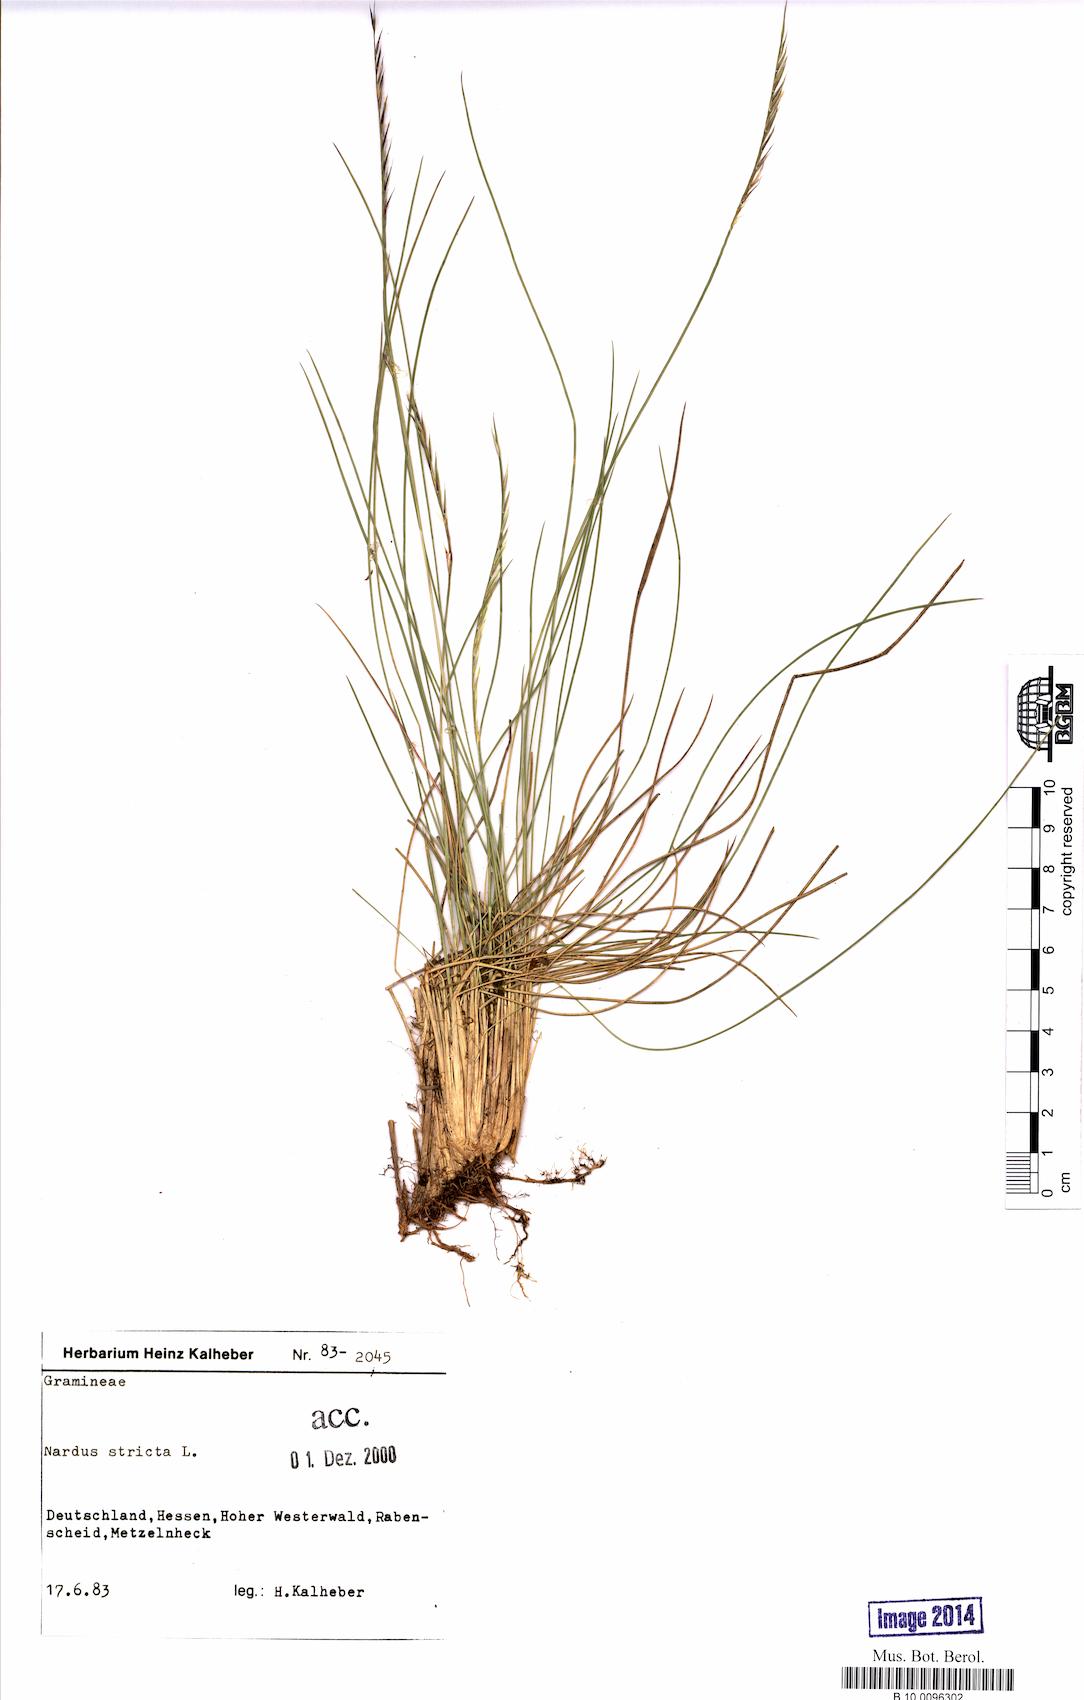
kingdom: Plantae
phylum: Tracheophyta
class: Liliopsida
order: Poales
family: Poaceae
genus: Nardus
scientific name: Nardus stricta
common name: Mat-grass
